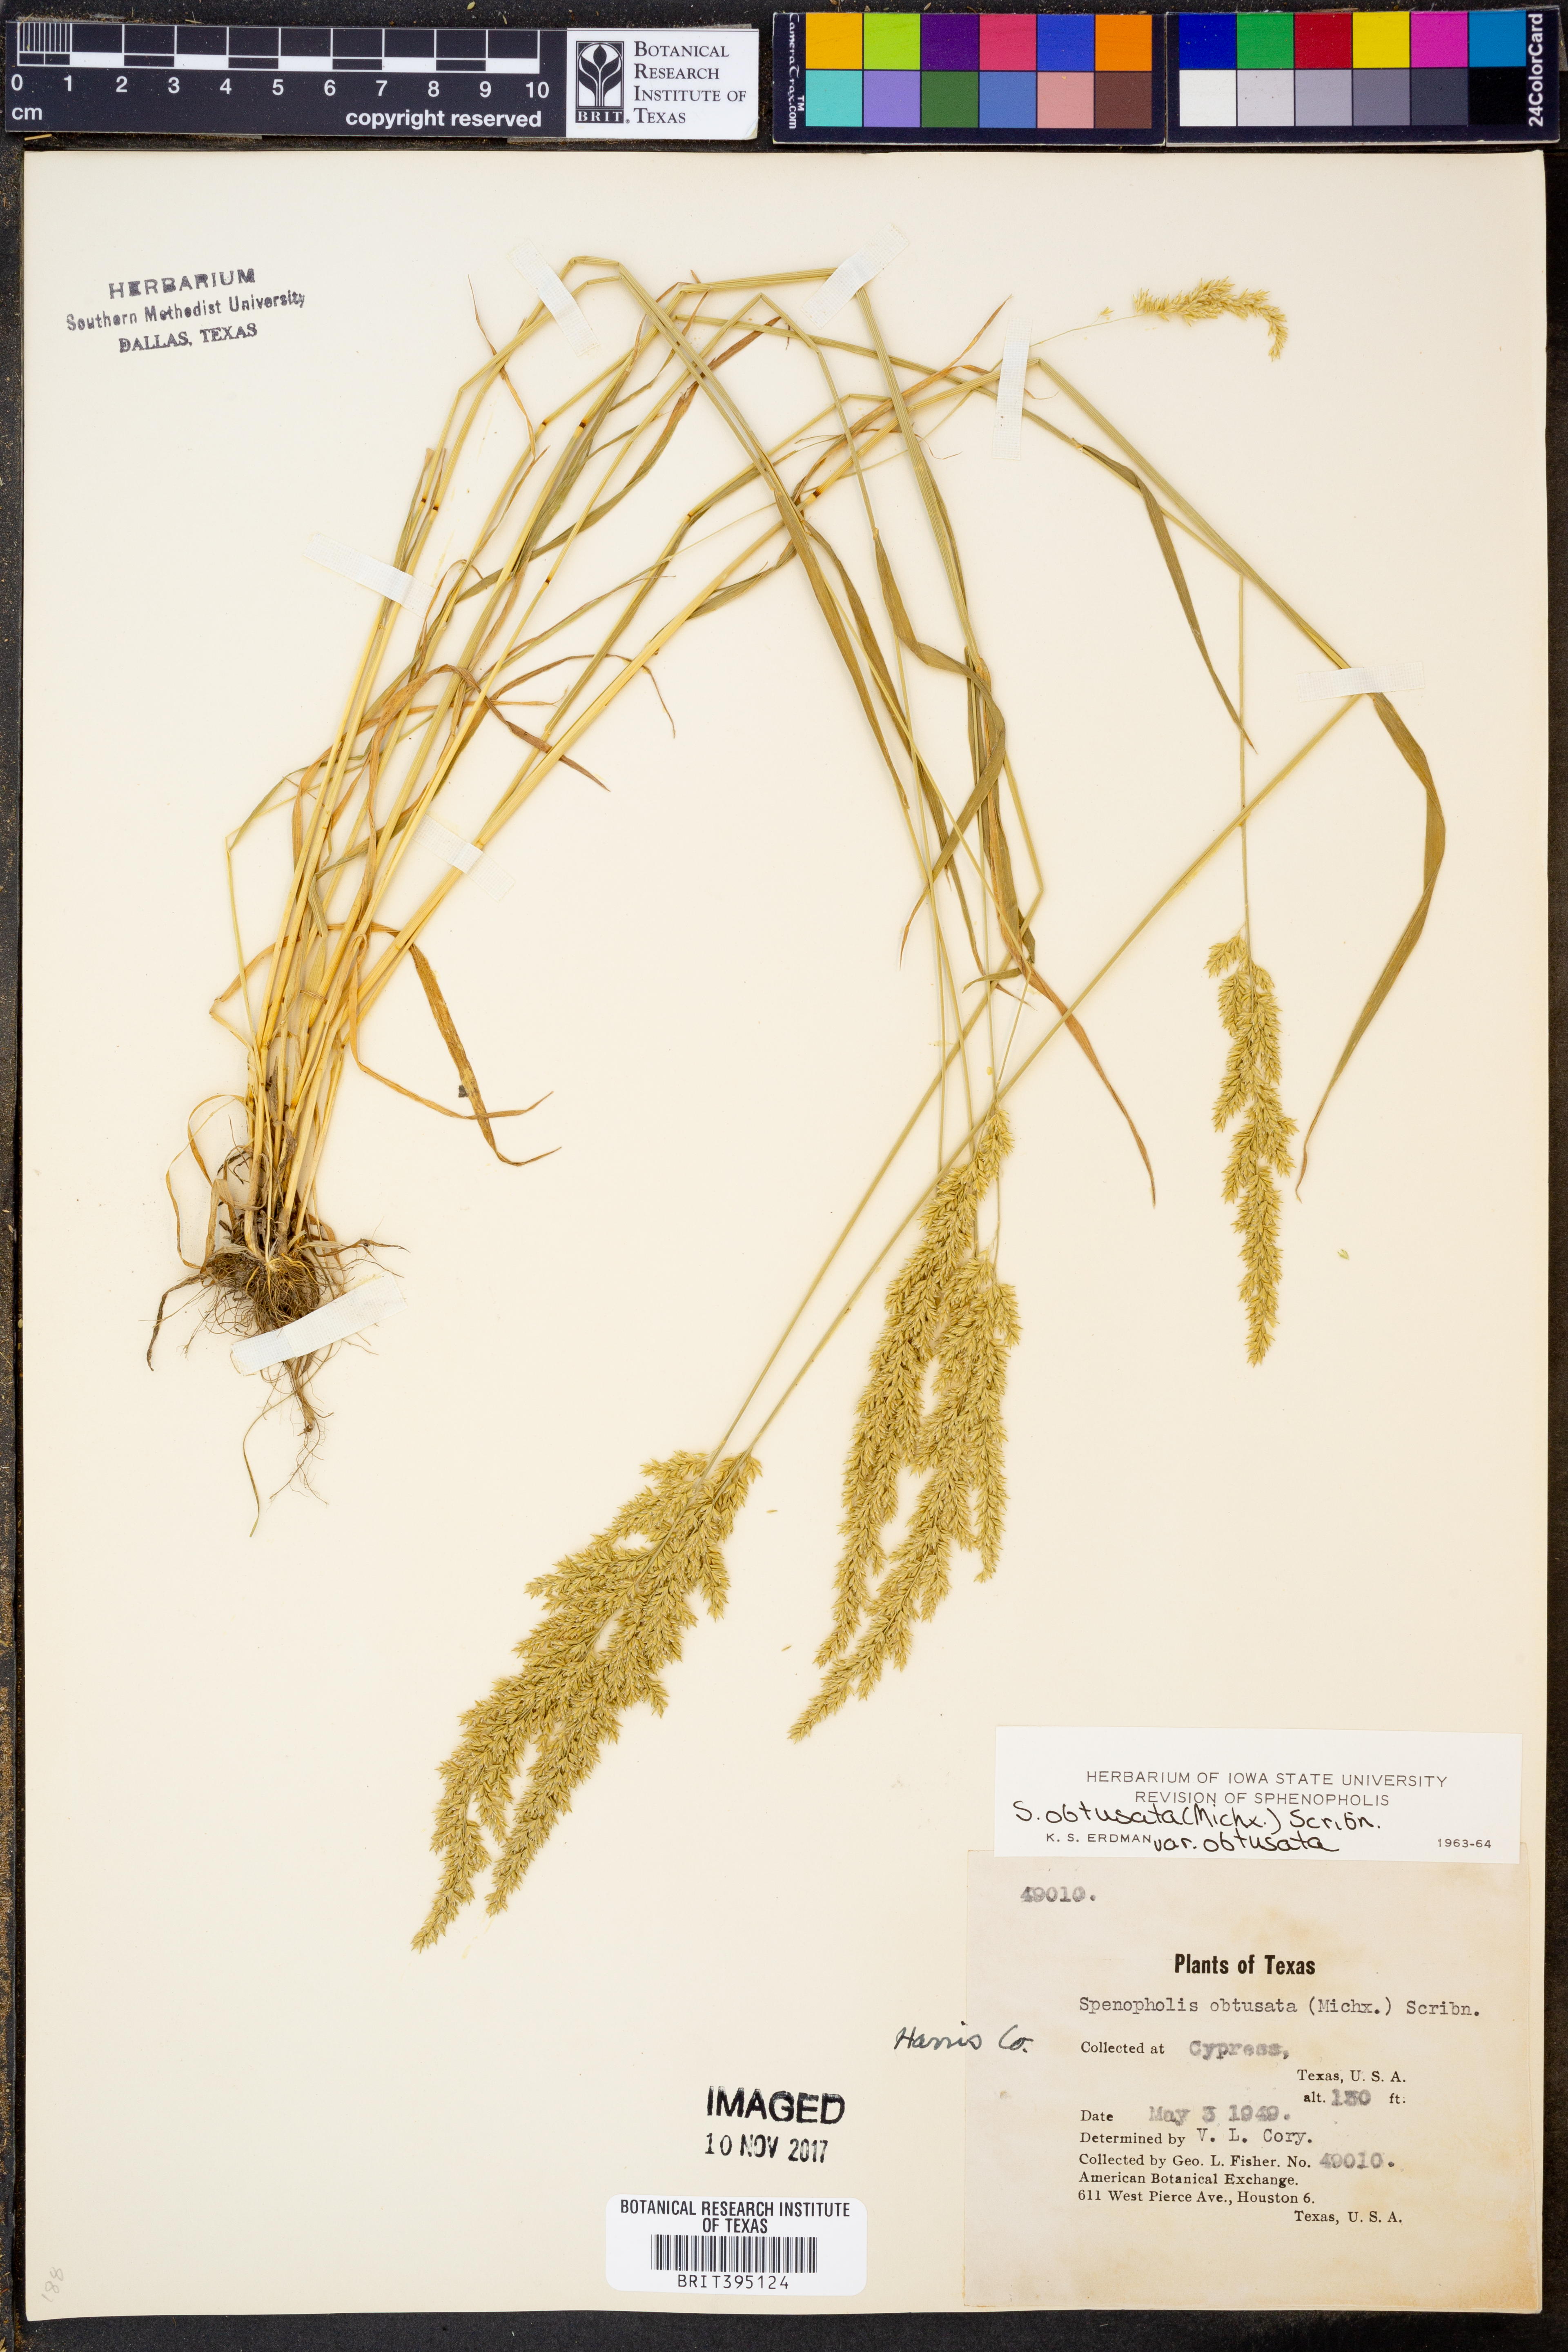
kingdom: Plantae
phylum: Tracheophyta
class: Liliopsida
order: Poales
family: Poaceae
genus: Sphenopholis
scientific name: Sphenopholis obtusata
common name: Prairie grass
